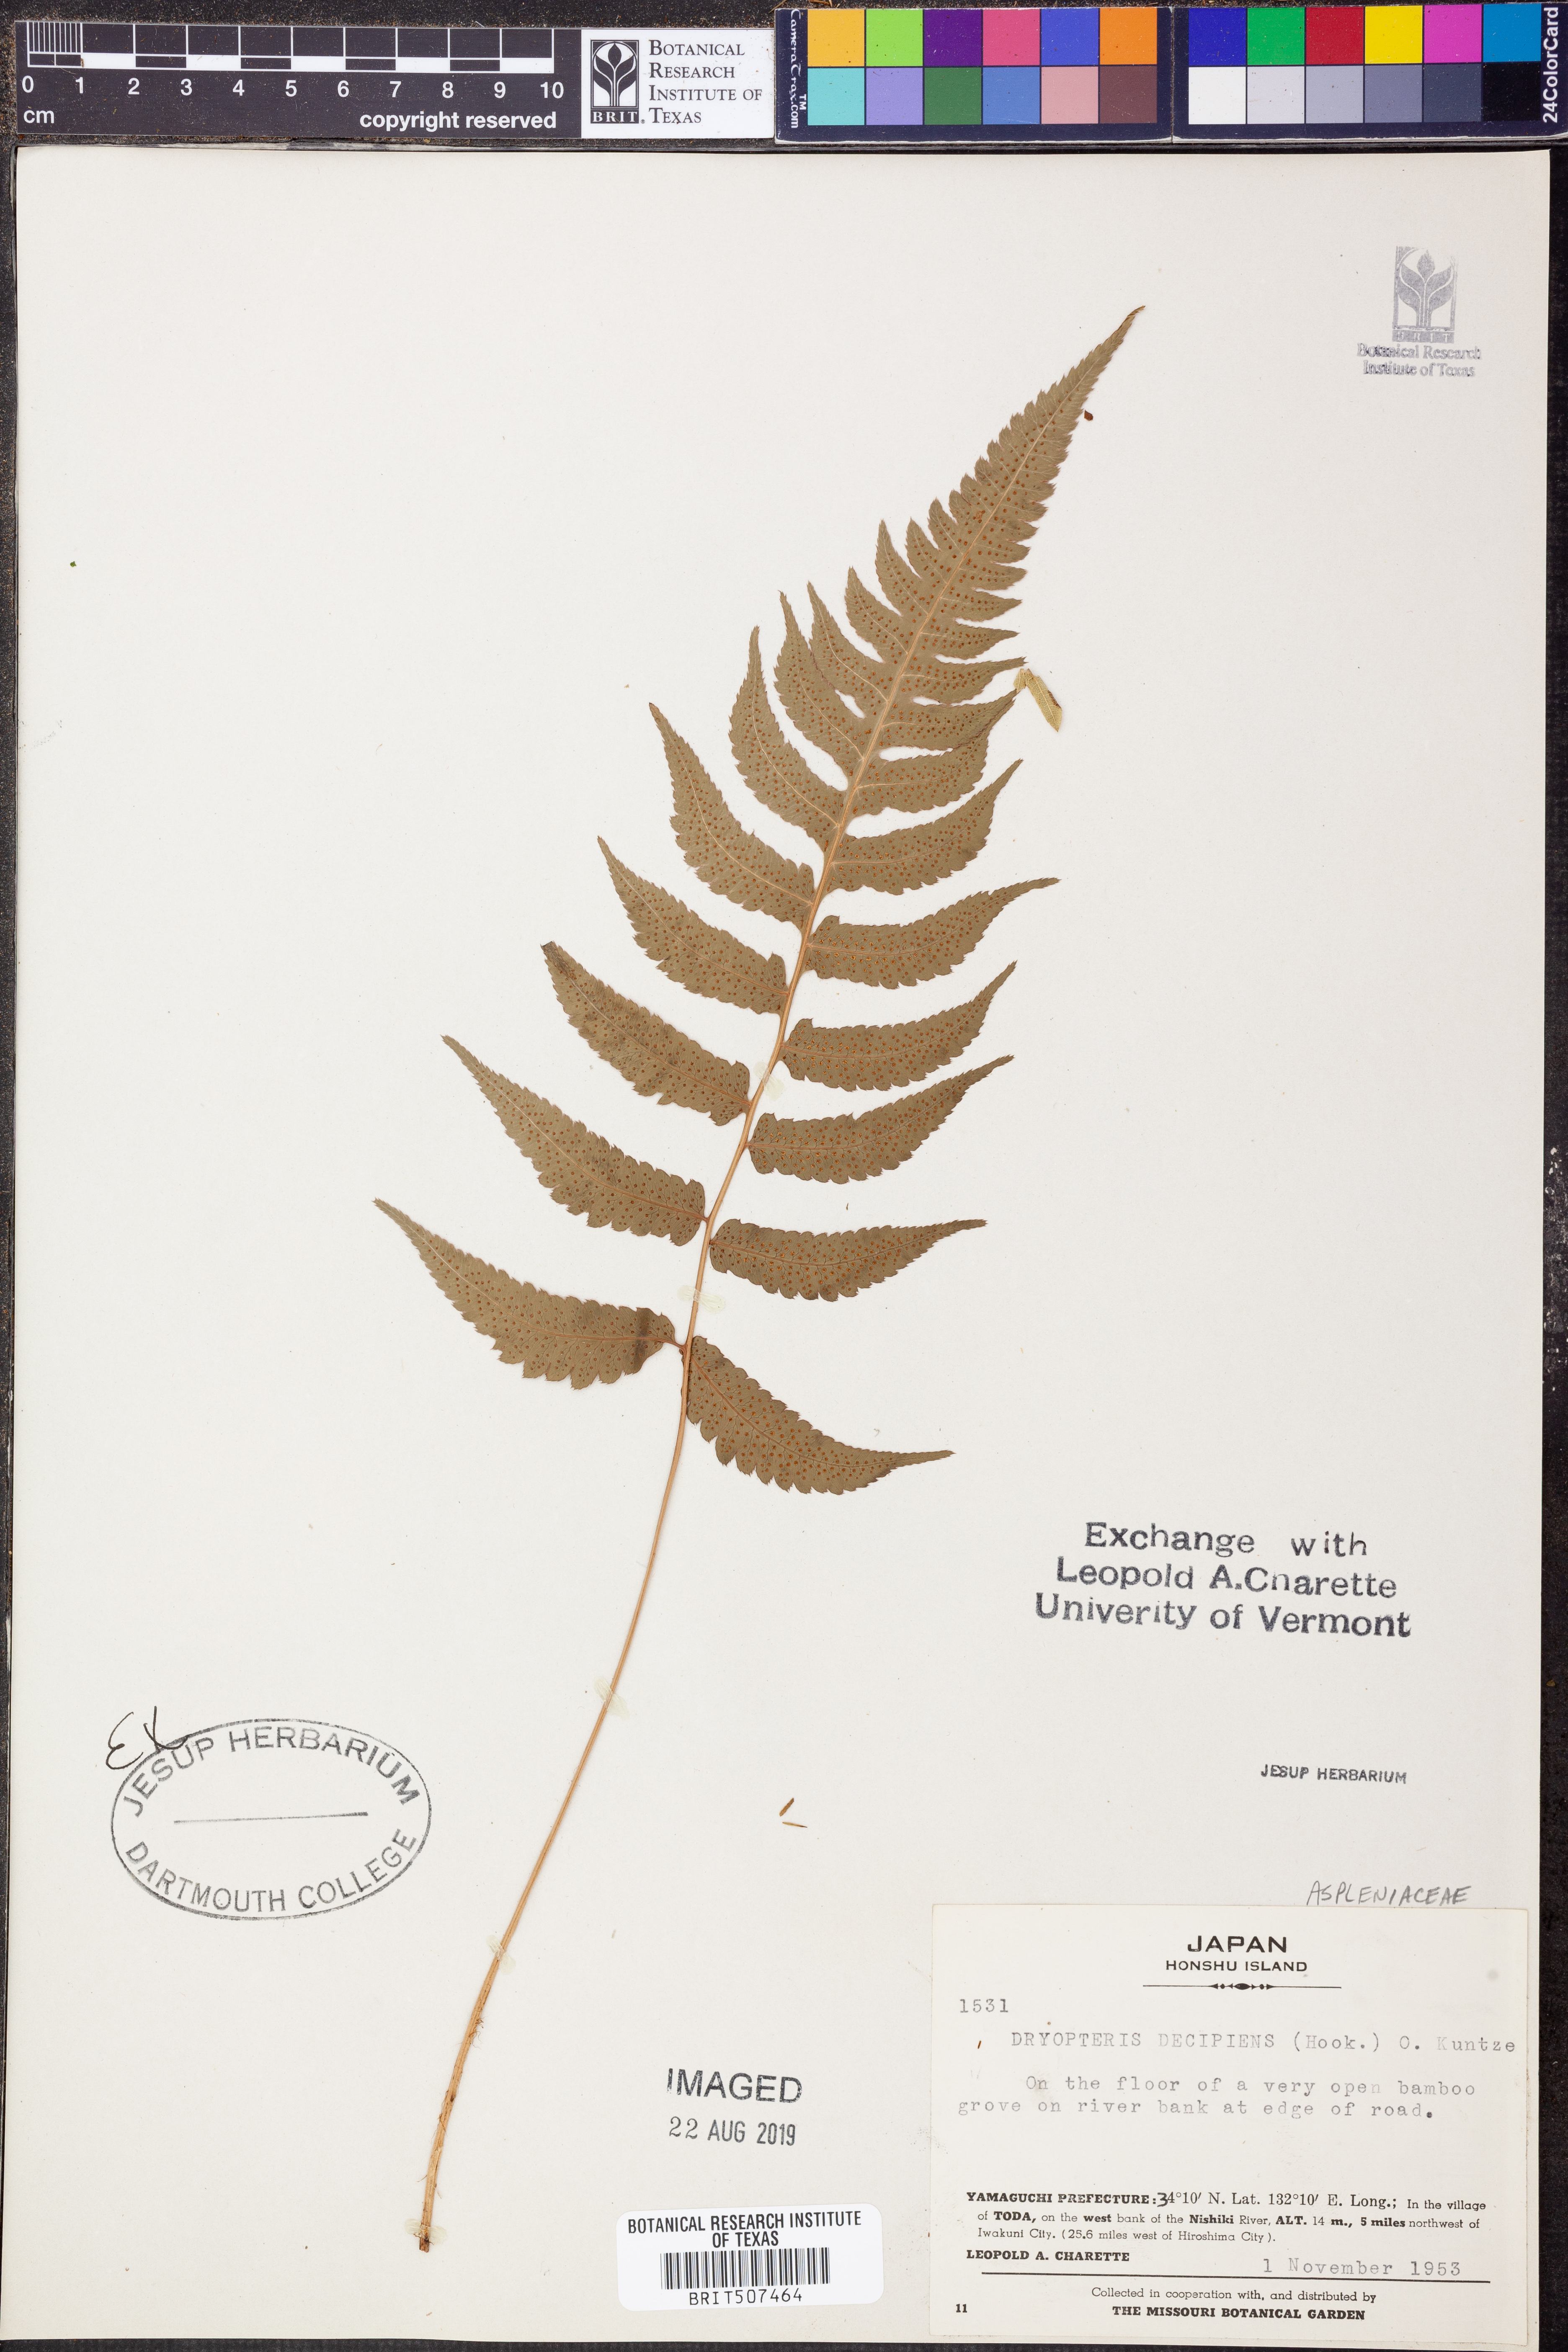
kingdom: Plantae
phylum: Tracheophyta
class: Polypodiopsida
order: Polypodiales
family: Dryopteridaceae
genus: Dryopteris
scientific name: Dryopteris decipiens
